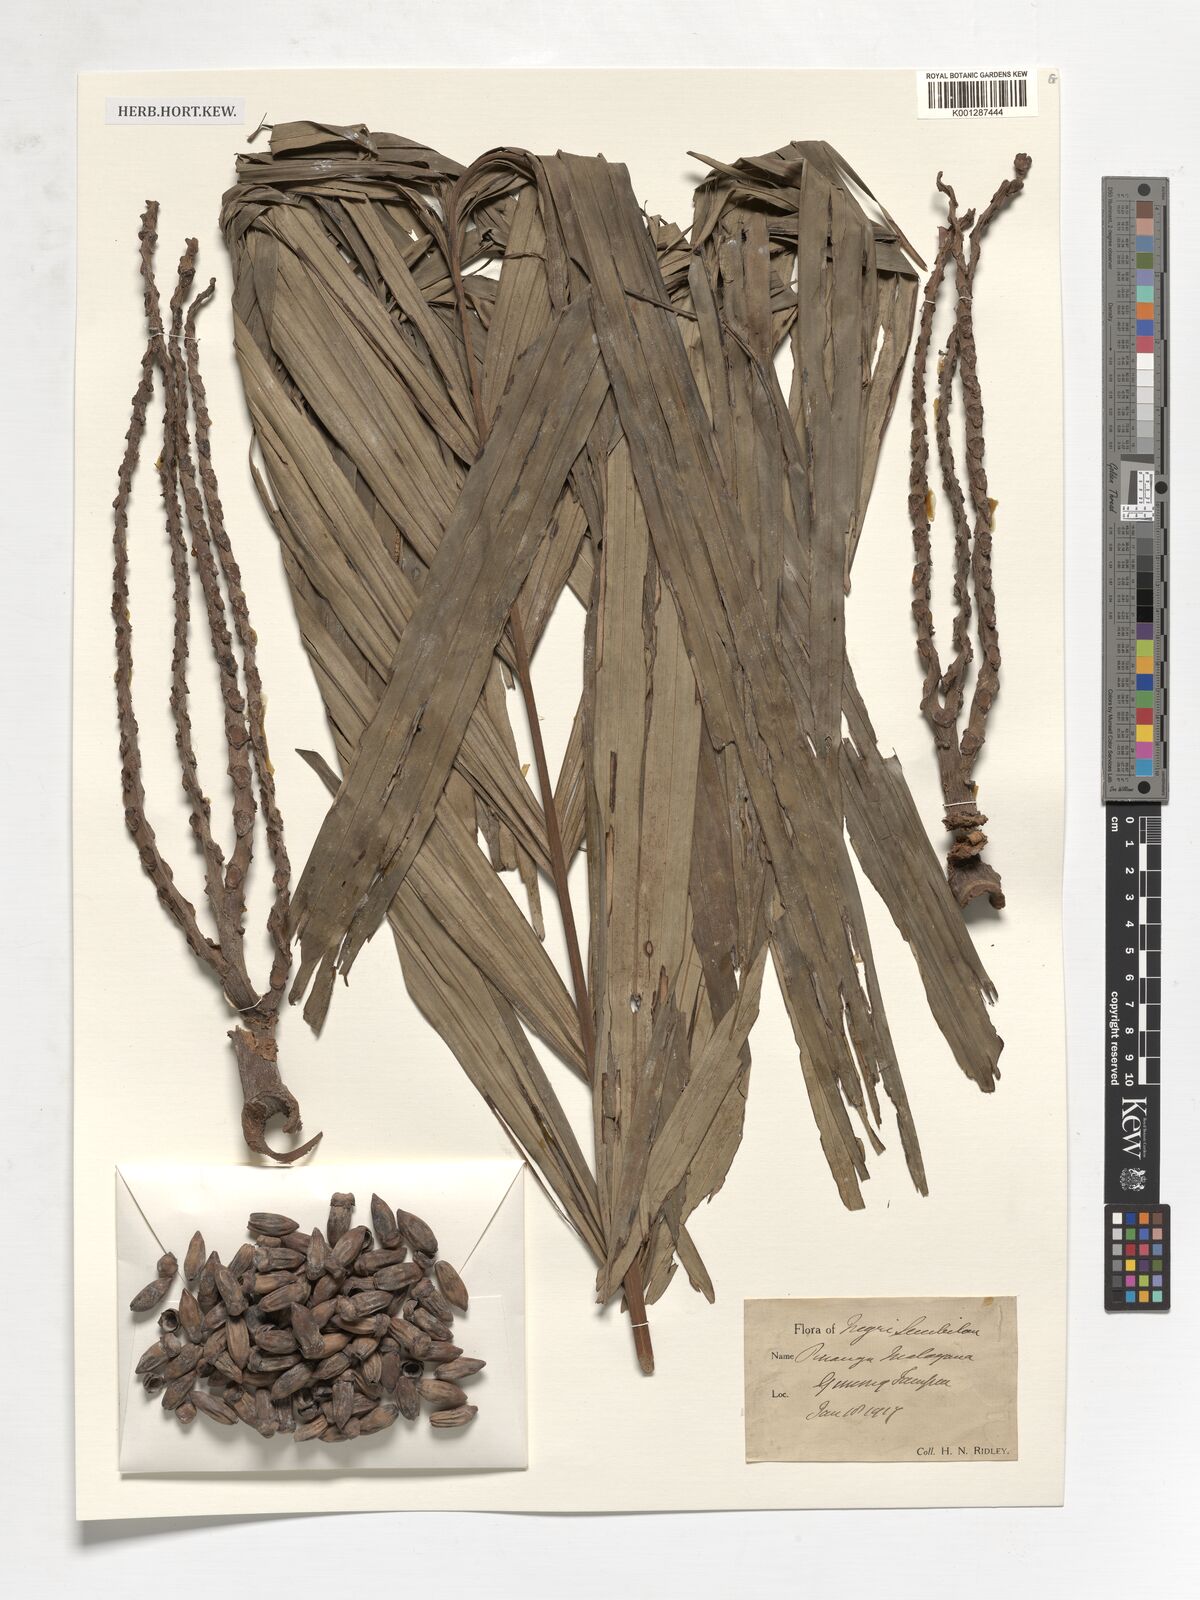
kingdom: Plantae
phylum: Tracheophyta
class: Liliopsida
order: Arecales
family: Arecaceae
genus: Pinanga
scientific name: Pinanga malaiana
